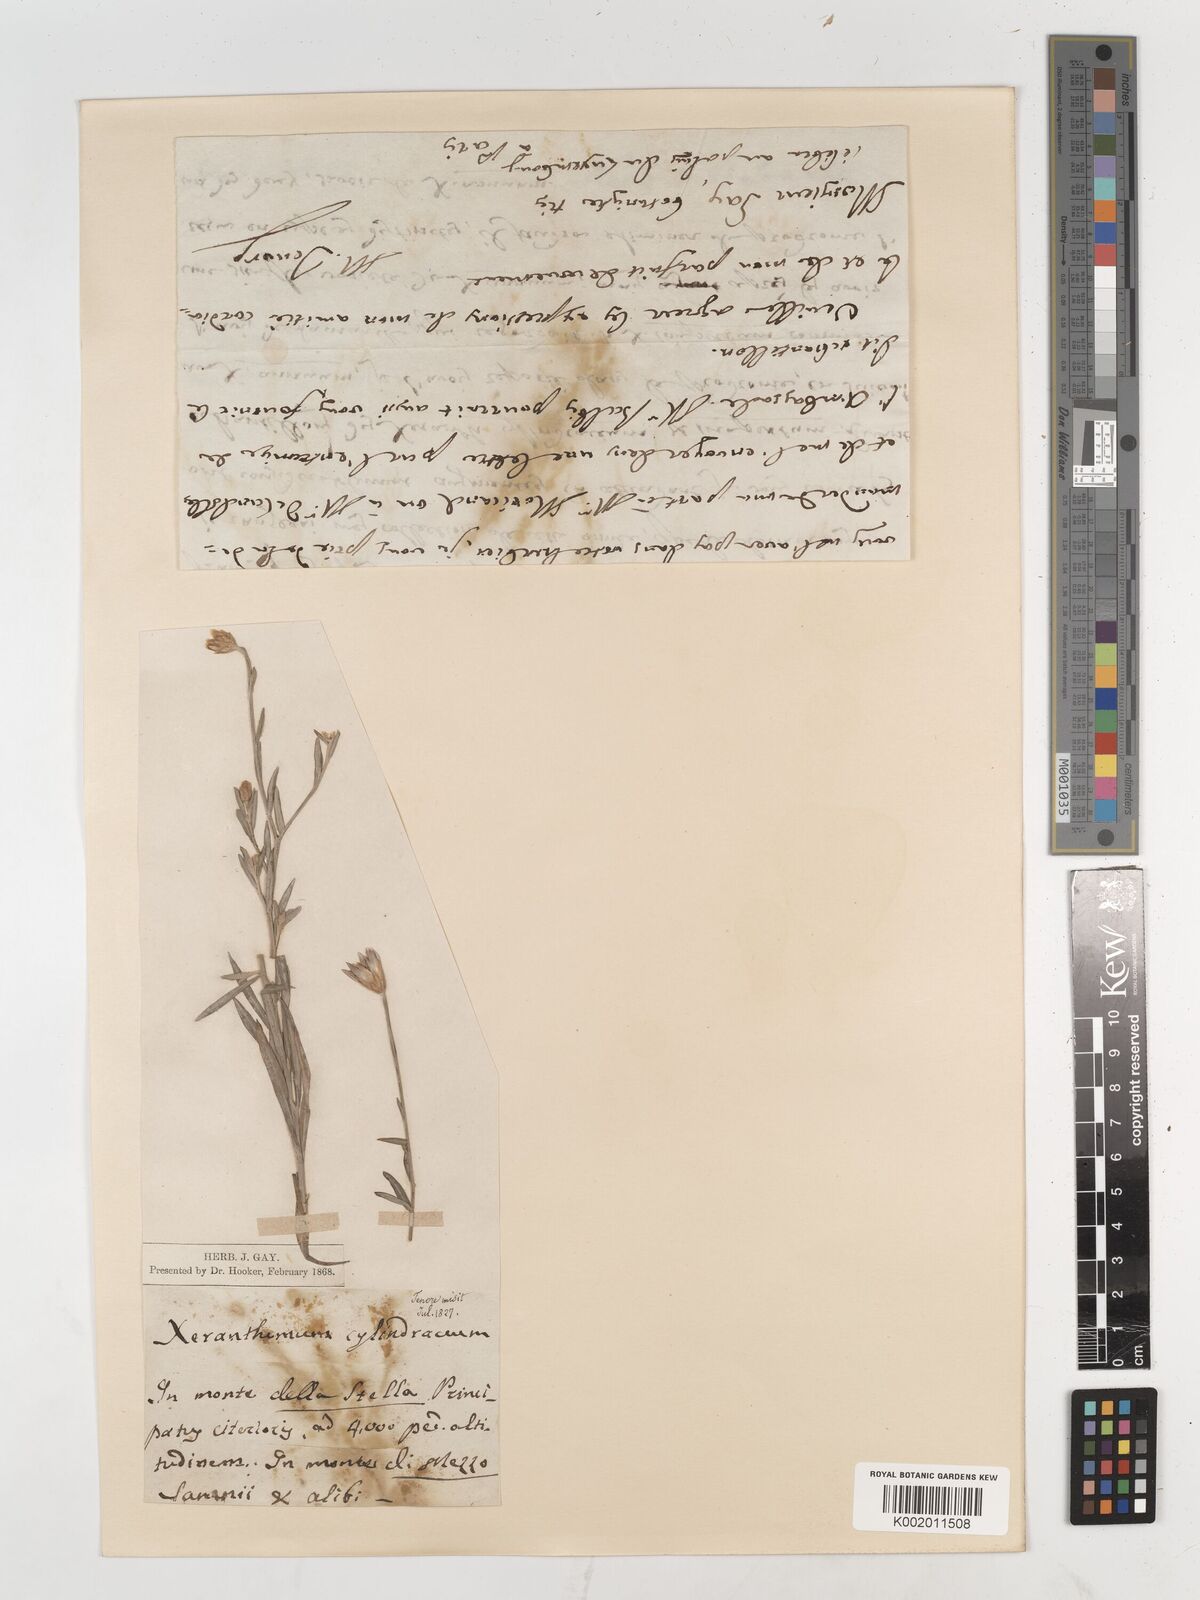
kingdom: Plantae
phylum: Tracheophyta
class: Magnoliopsida
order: Asterales
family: Asteraceae
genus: Xeranthemum
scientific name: Xeranthemum cylindraceum
